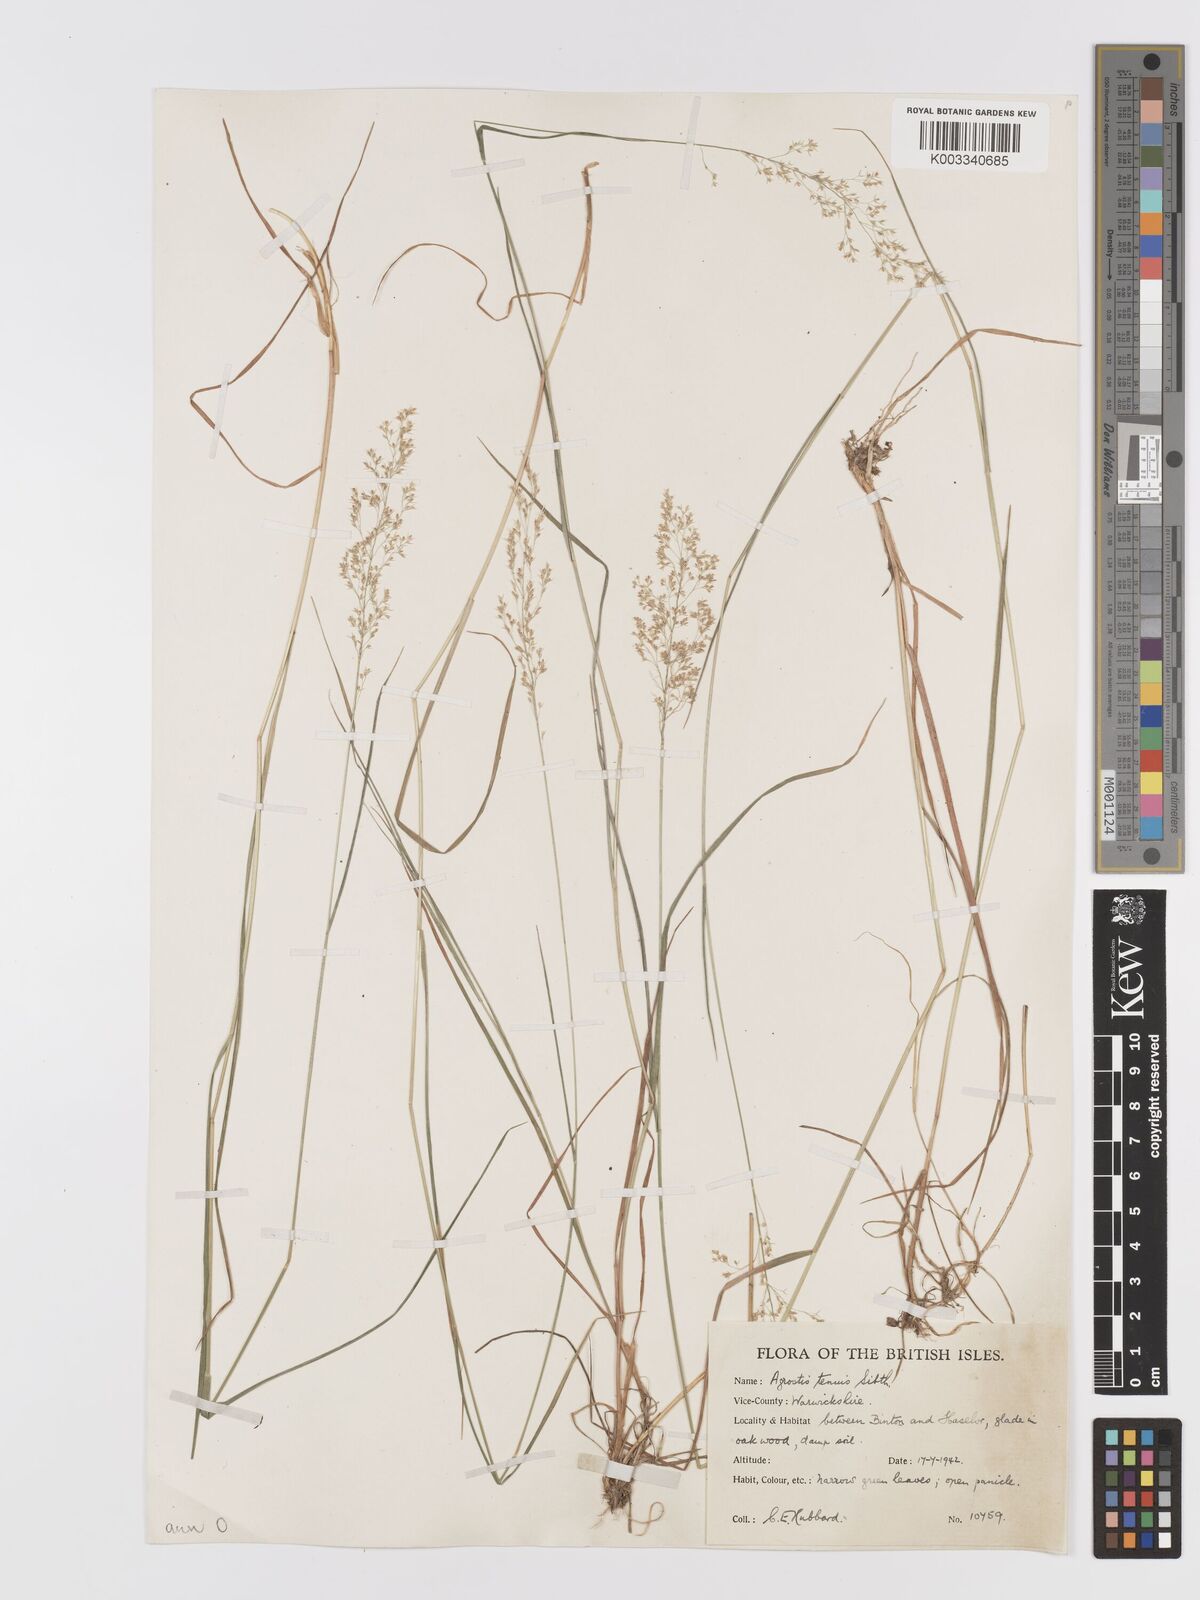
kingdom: Plantae
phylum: Tracheophyta
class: Liliopsida
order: Poales
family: Poaceae
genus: Agrostis
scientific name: Agrostis capillaris
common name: Colonial bentgrass
